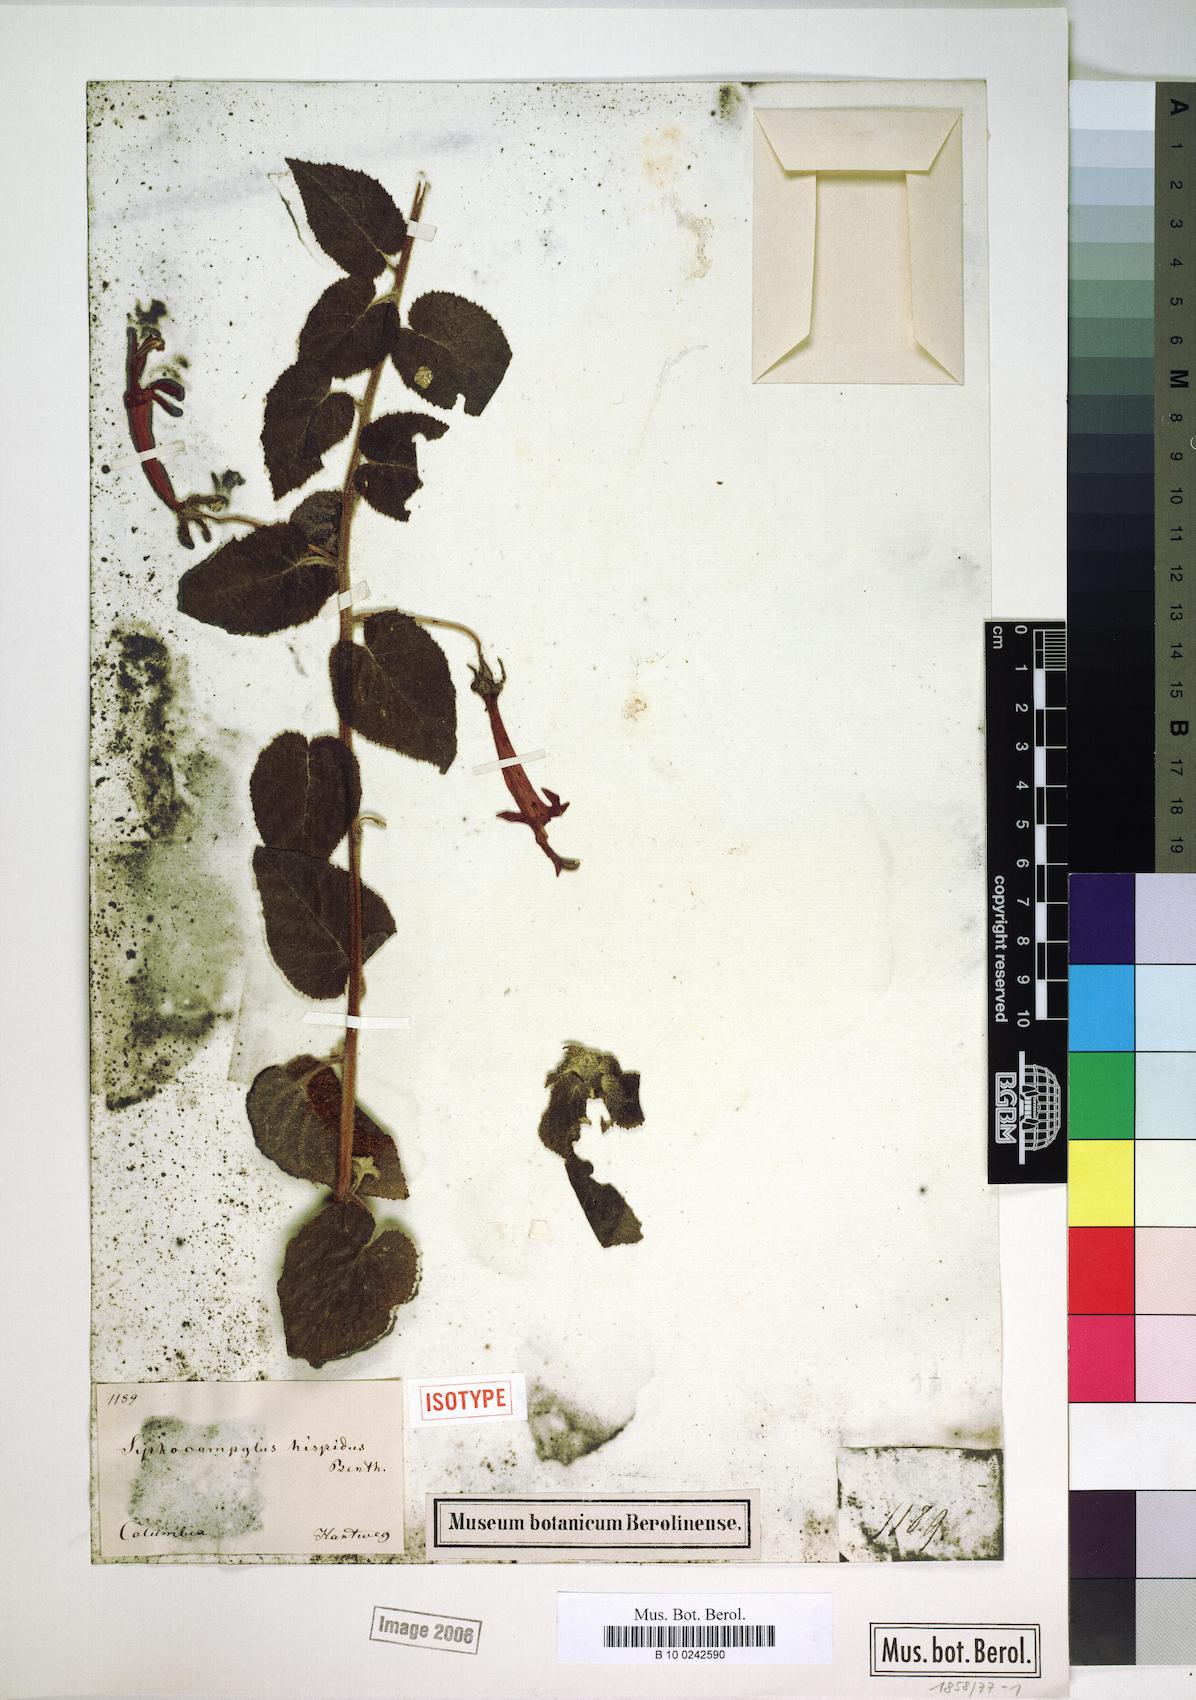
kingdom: Plantae
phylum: Tracheophyta
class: Magnoliopsida
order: Asterales
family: Campanulaceae
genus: Siphocampylus
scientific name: Siphocampylus hispidus
